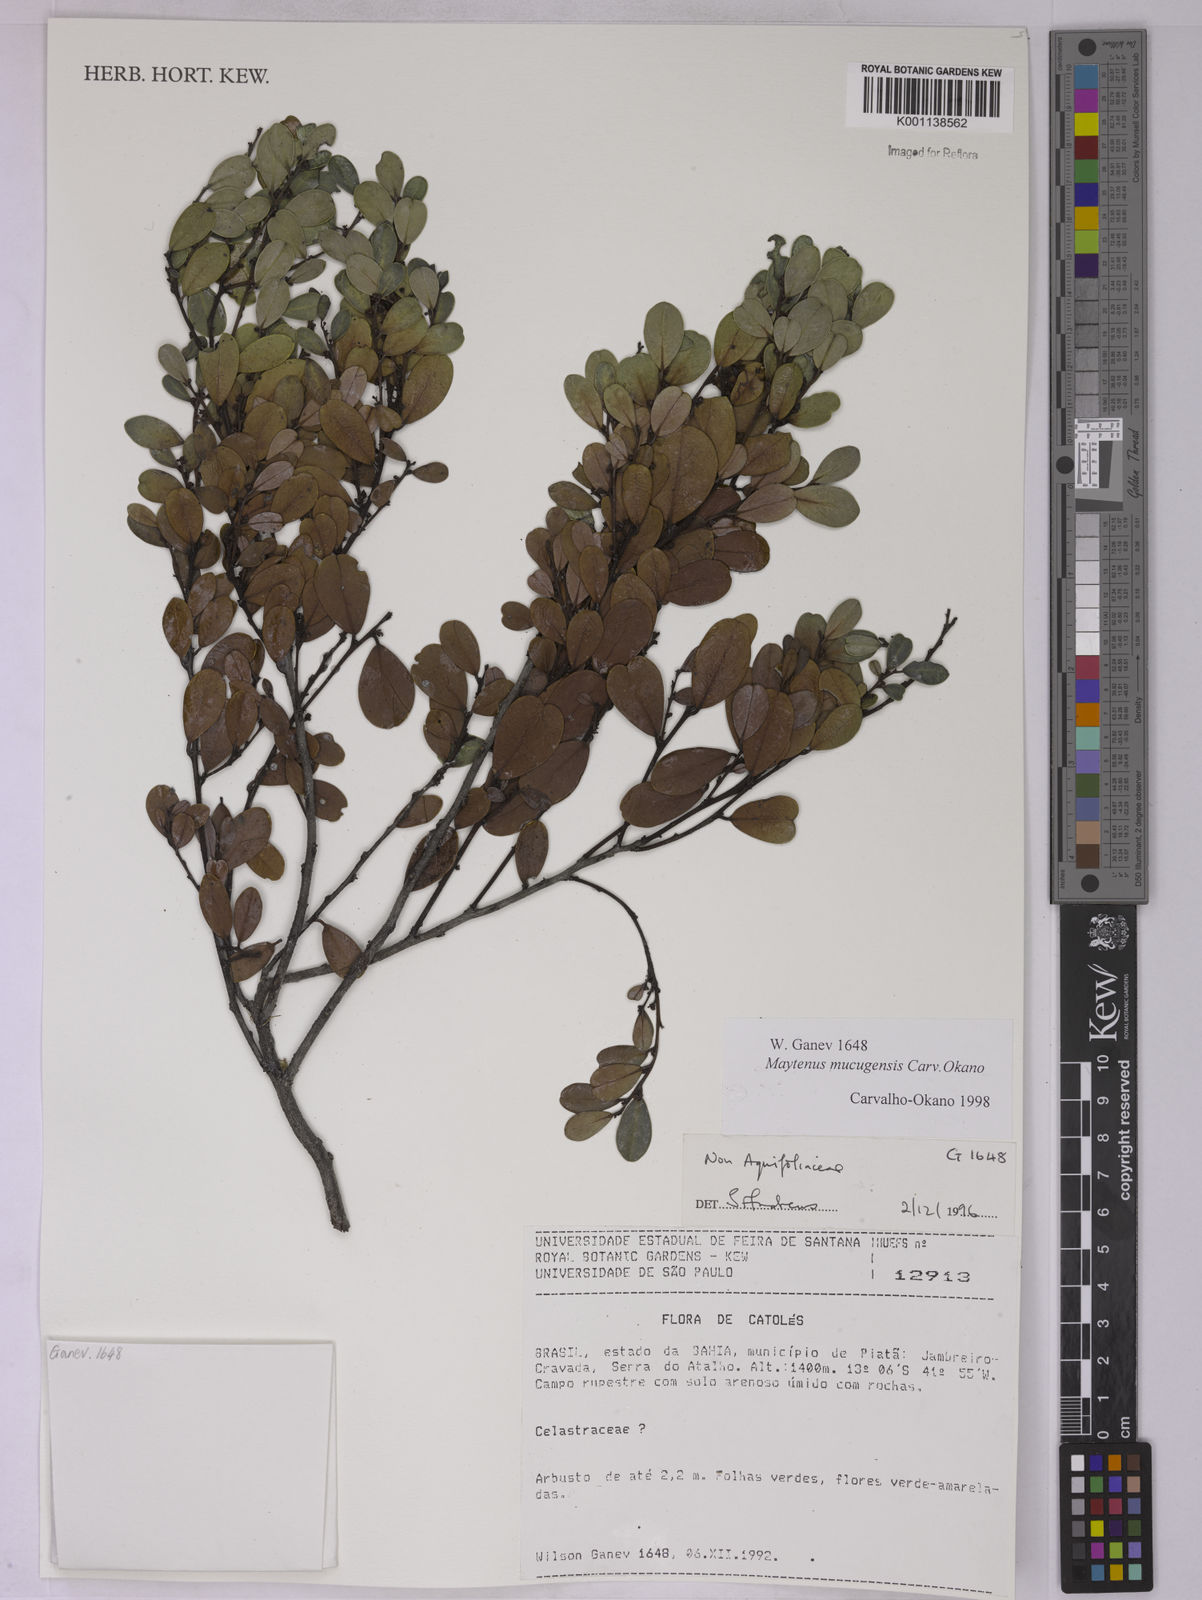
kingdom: Plantae
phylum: Tracheophyta
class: Magnoliopsida
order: Celastrales
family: Celastraceae
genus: Monteverdia
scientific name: Monteverdia mucugensis
